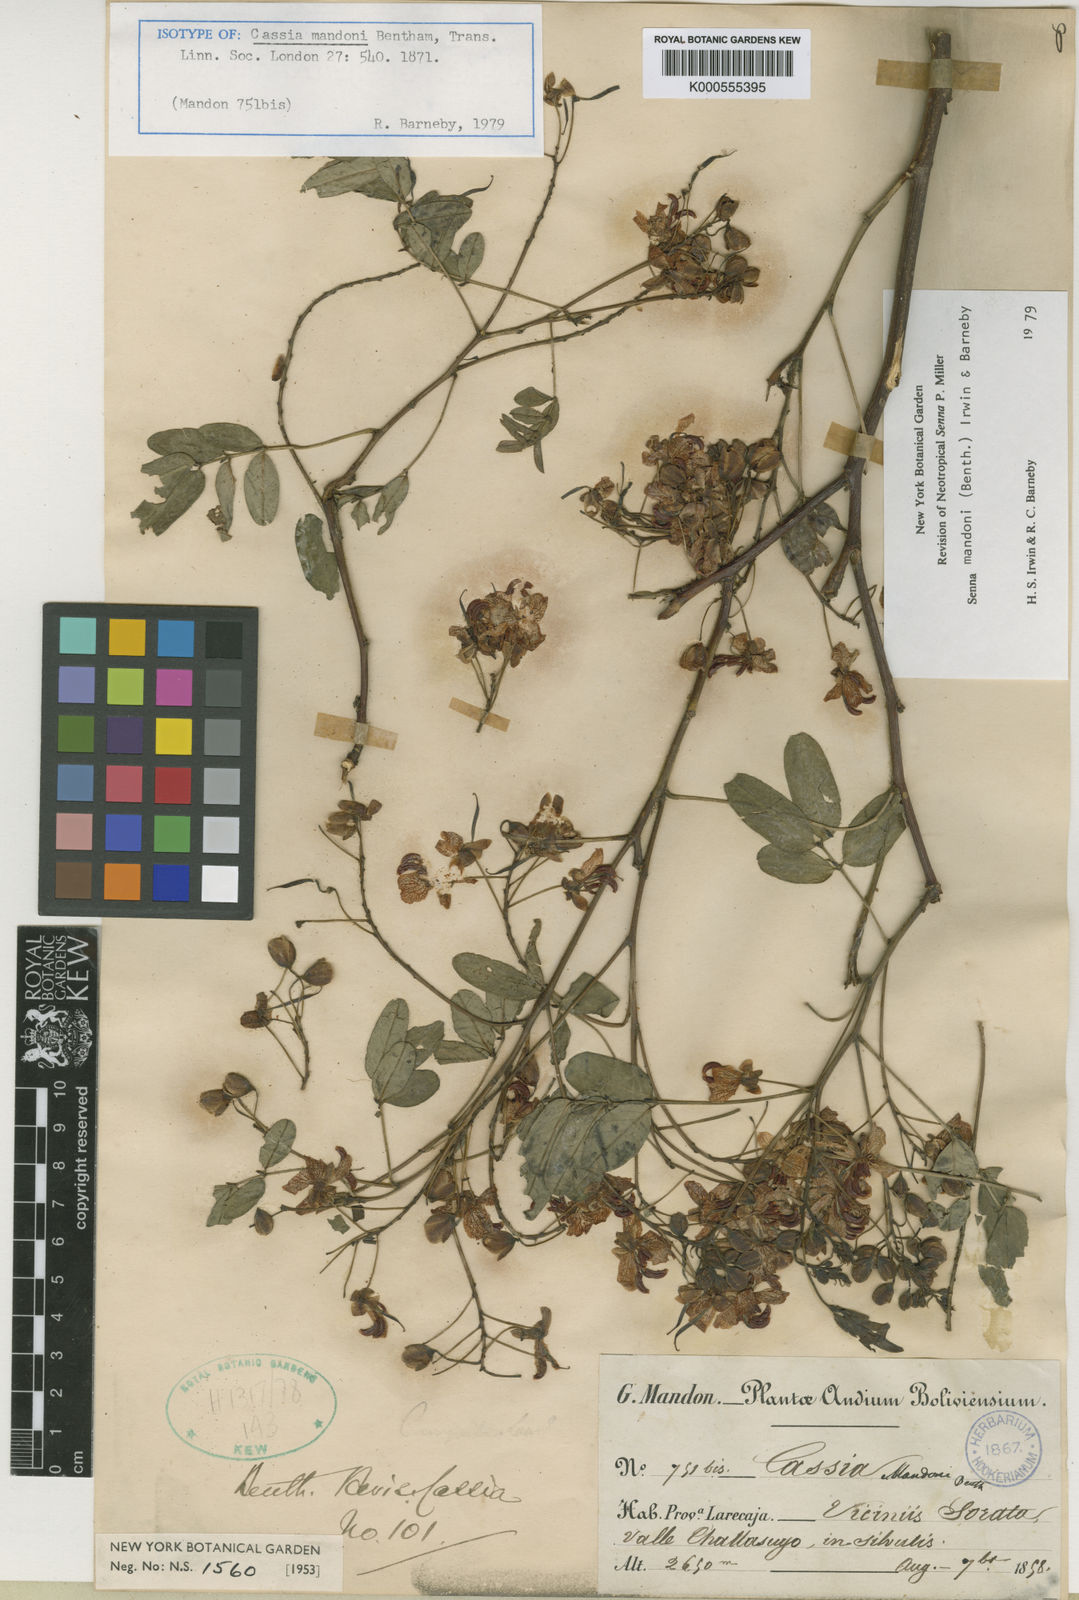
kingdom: Plantae
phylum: Tracheophyta
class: Magnoliopsida
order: Fabales
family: Fabaceae
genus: Senna
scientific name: Senna mandonii
